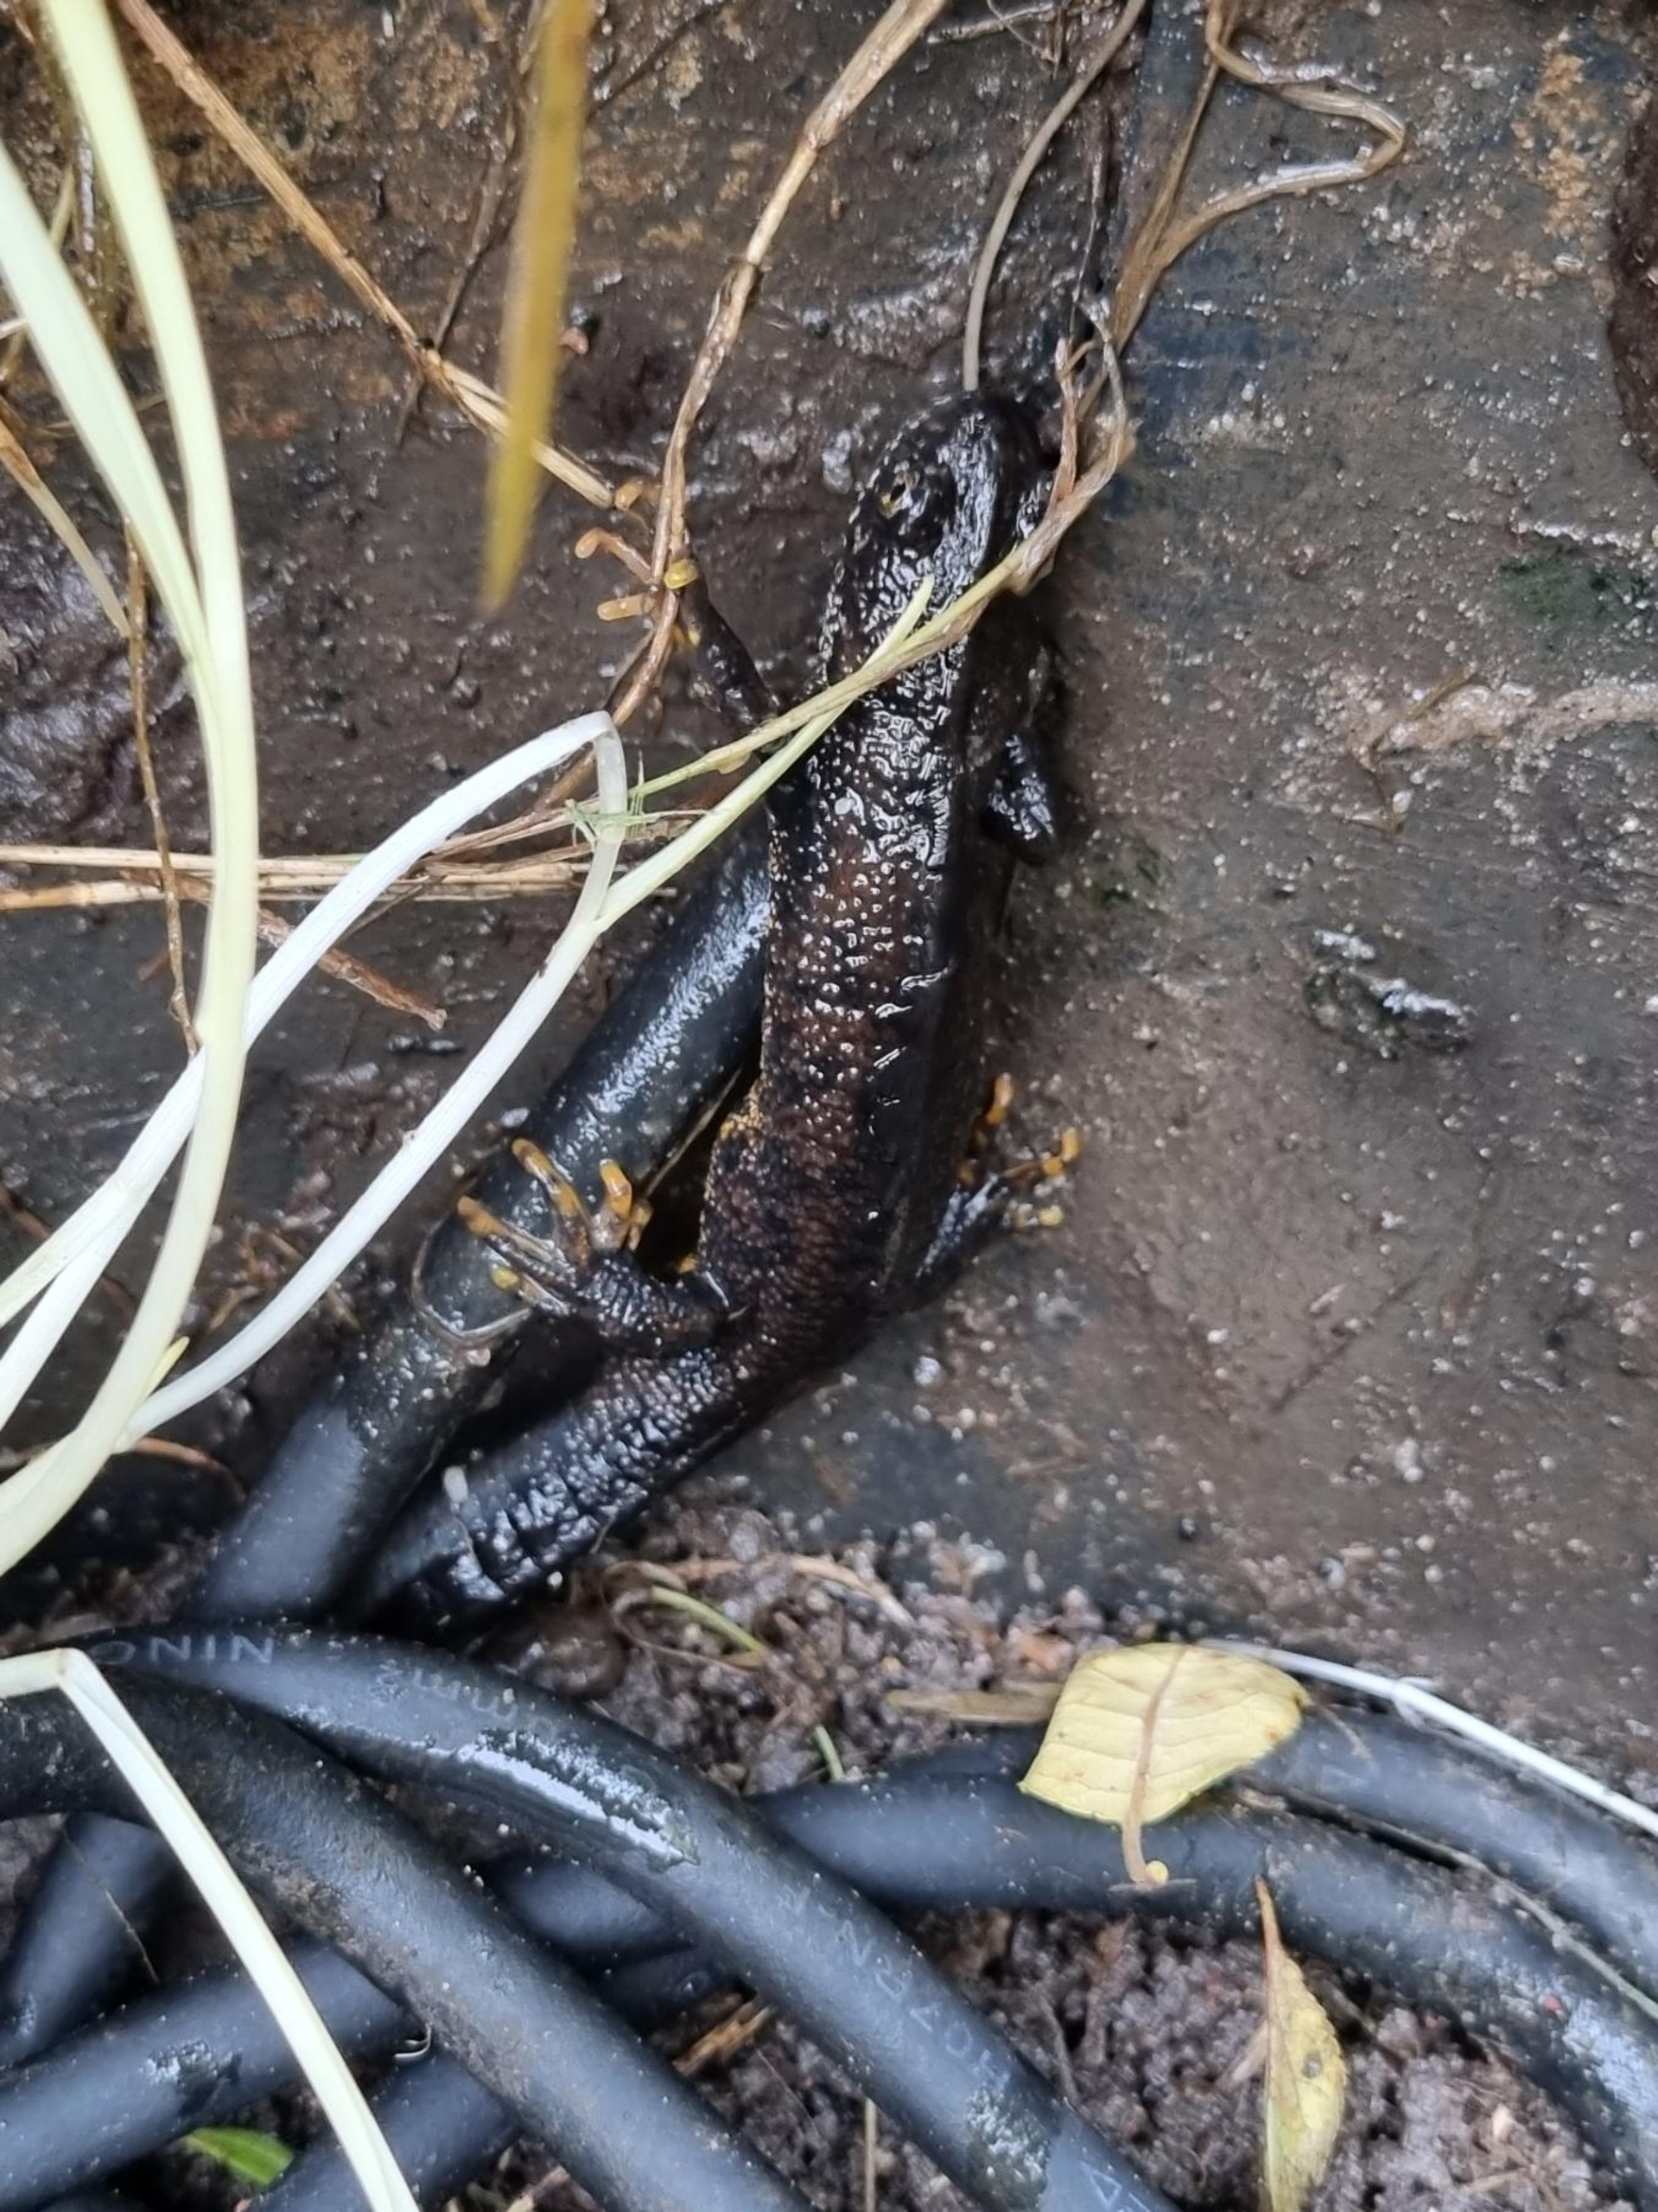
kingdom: Animalia
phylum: Chordata
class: Amphibia
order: Caudata
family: Salamandridae
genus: Triturus
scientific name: Triturus cristatus
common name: Stor vandsalamander
